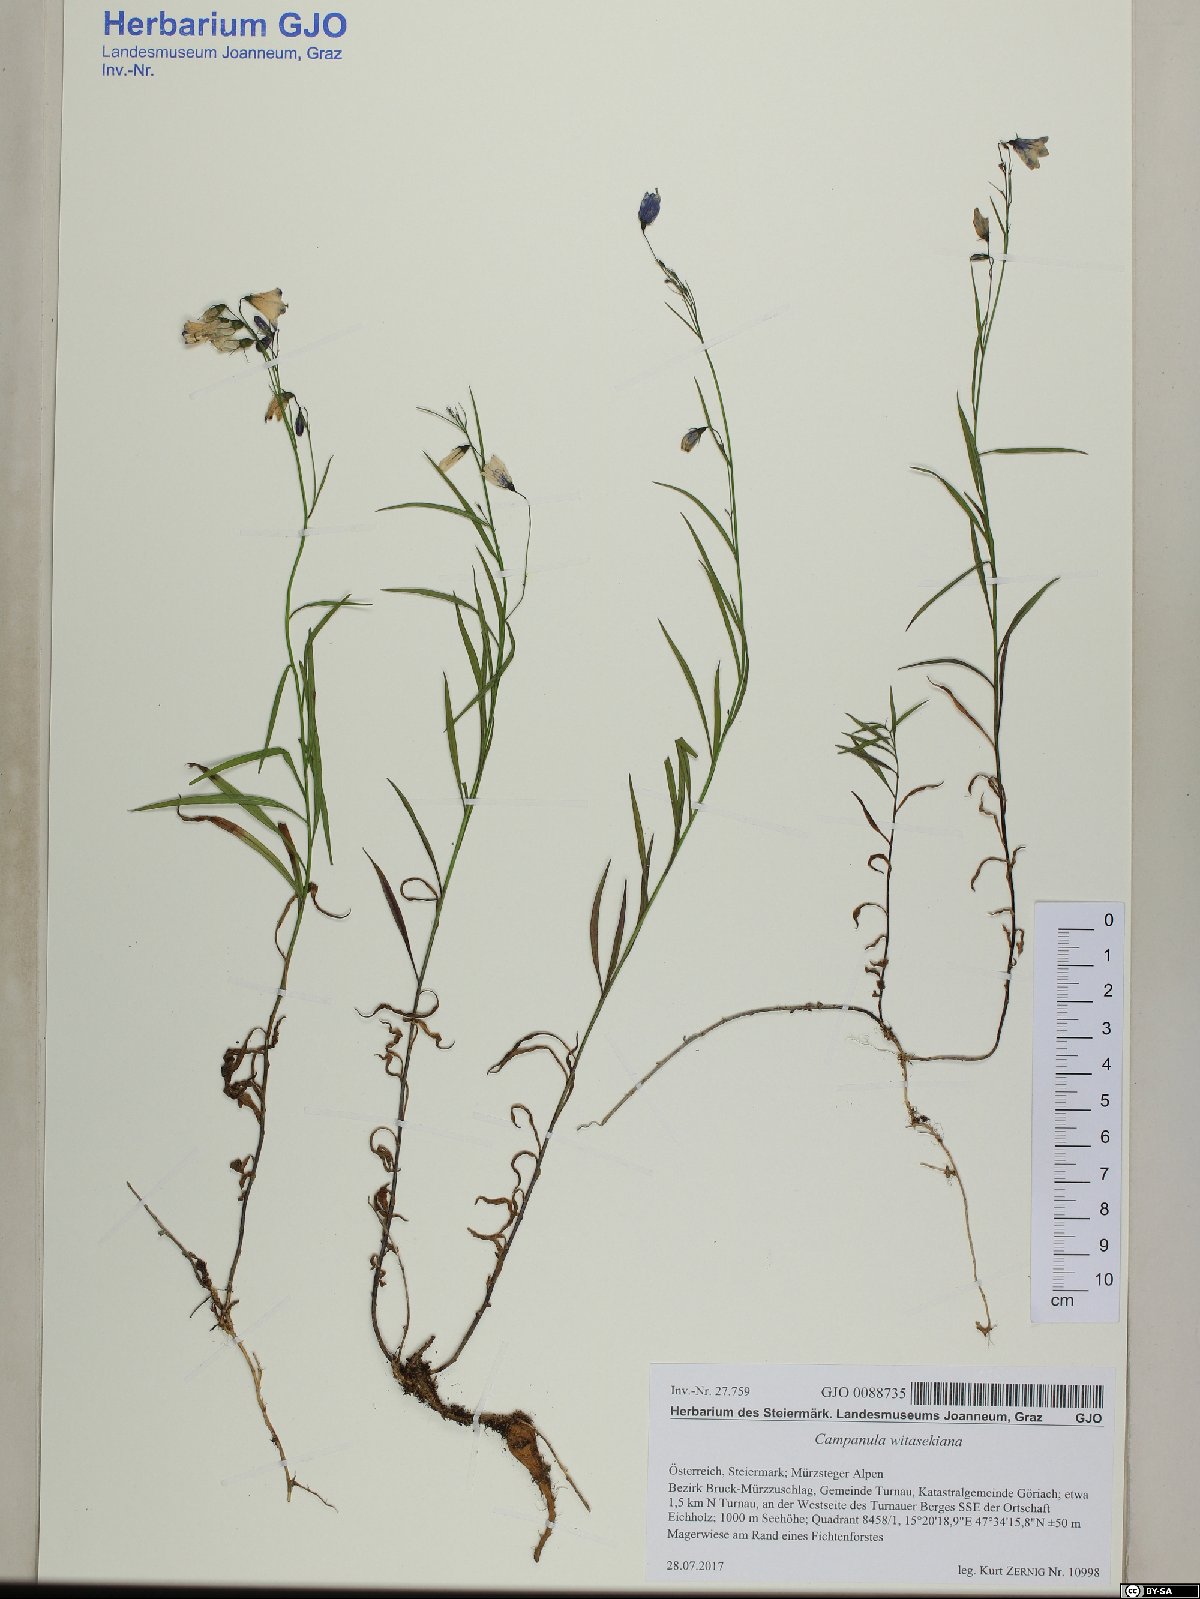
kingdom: Plantae
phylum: Tracheophyta
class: Magnoliopsida
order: Asterales
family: Campanulaceae
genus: Campanula
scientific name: Campanula witasekiana
